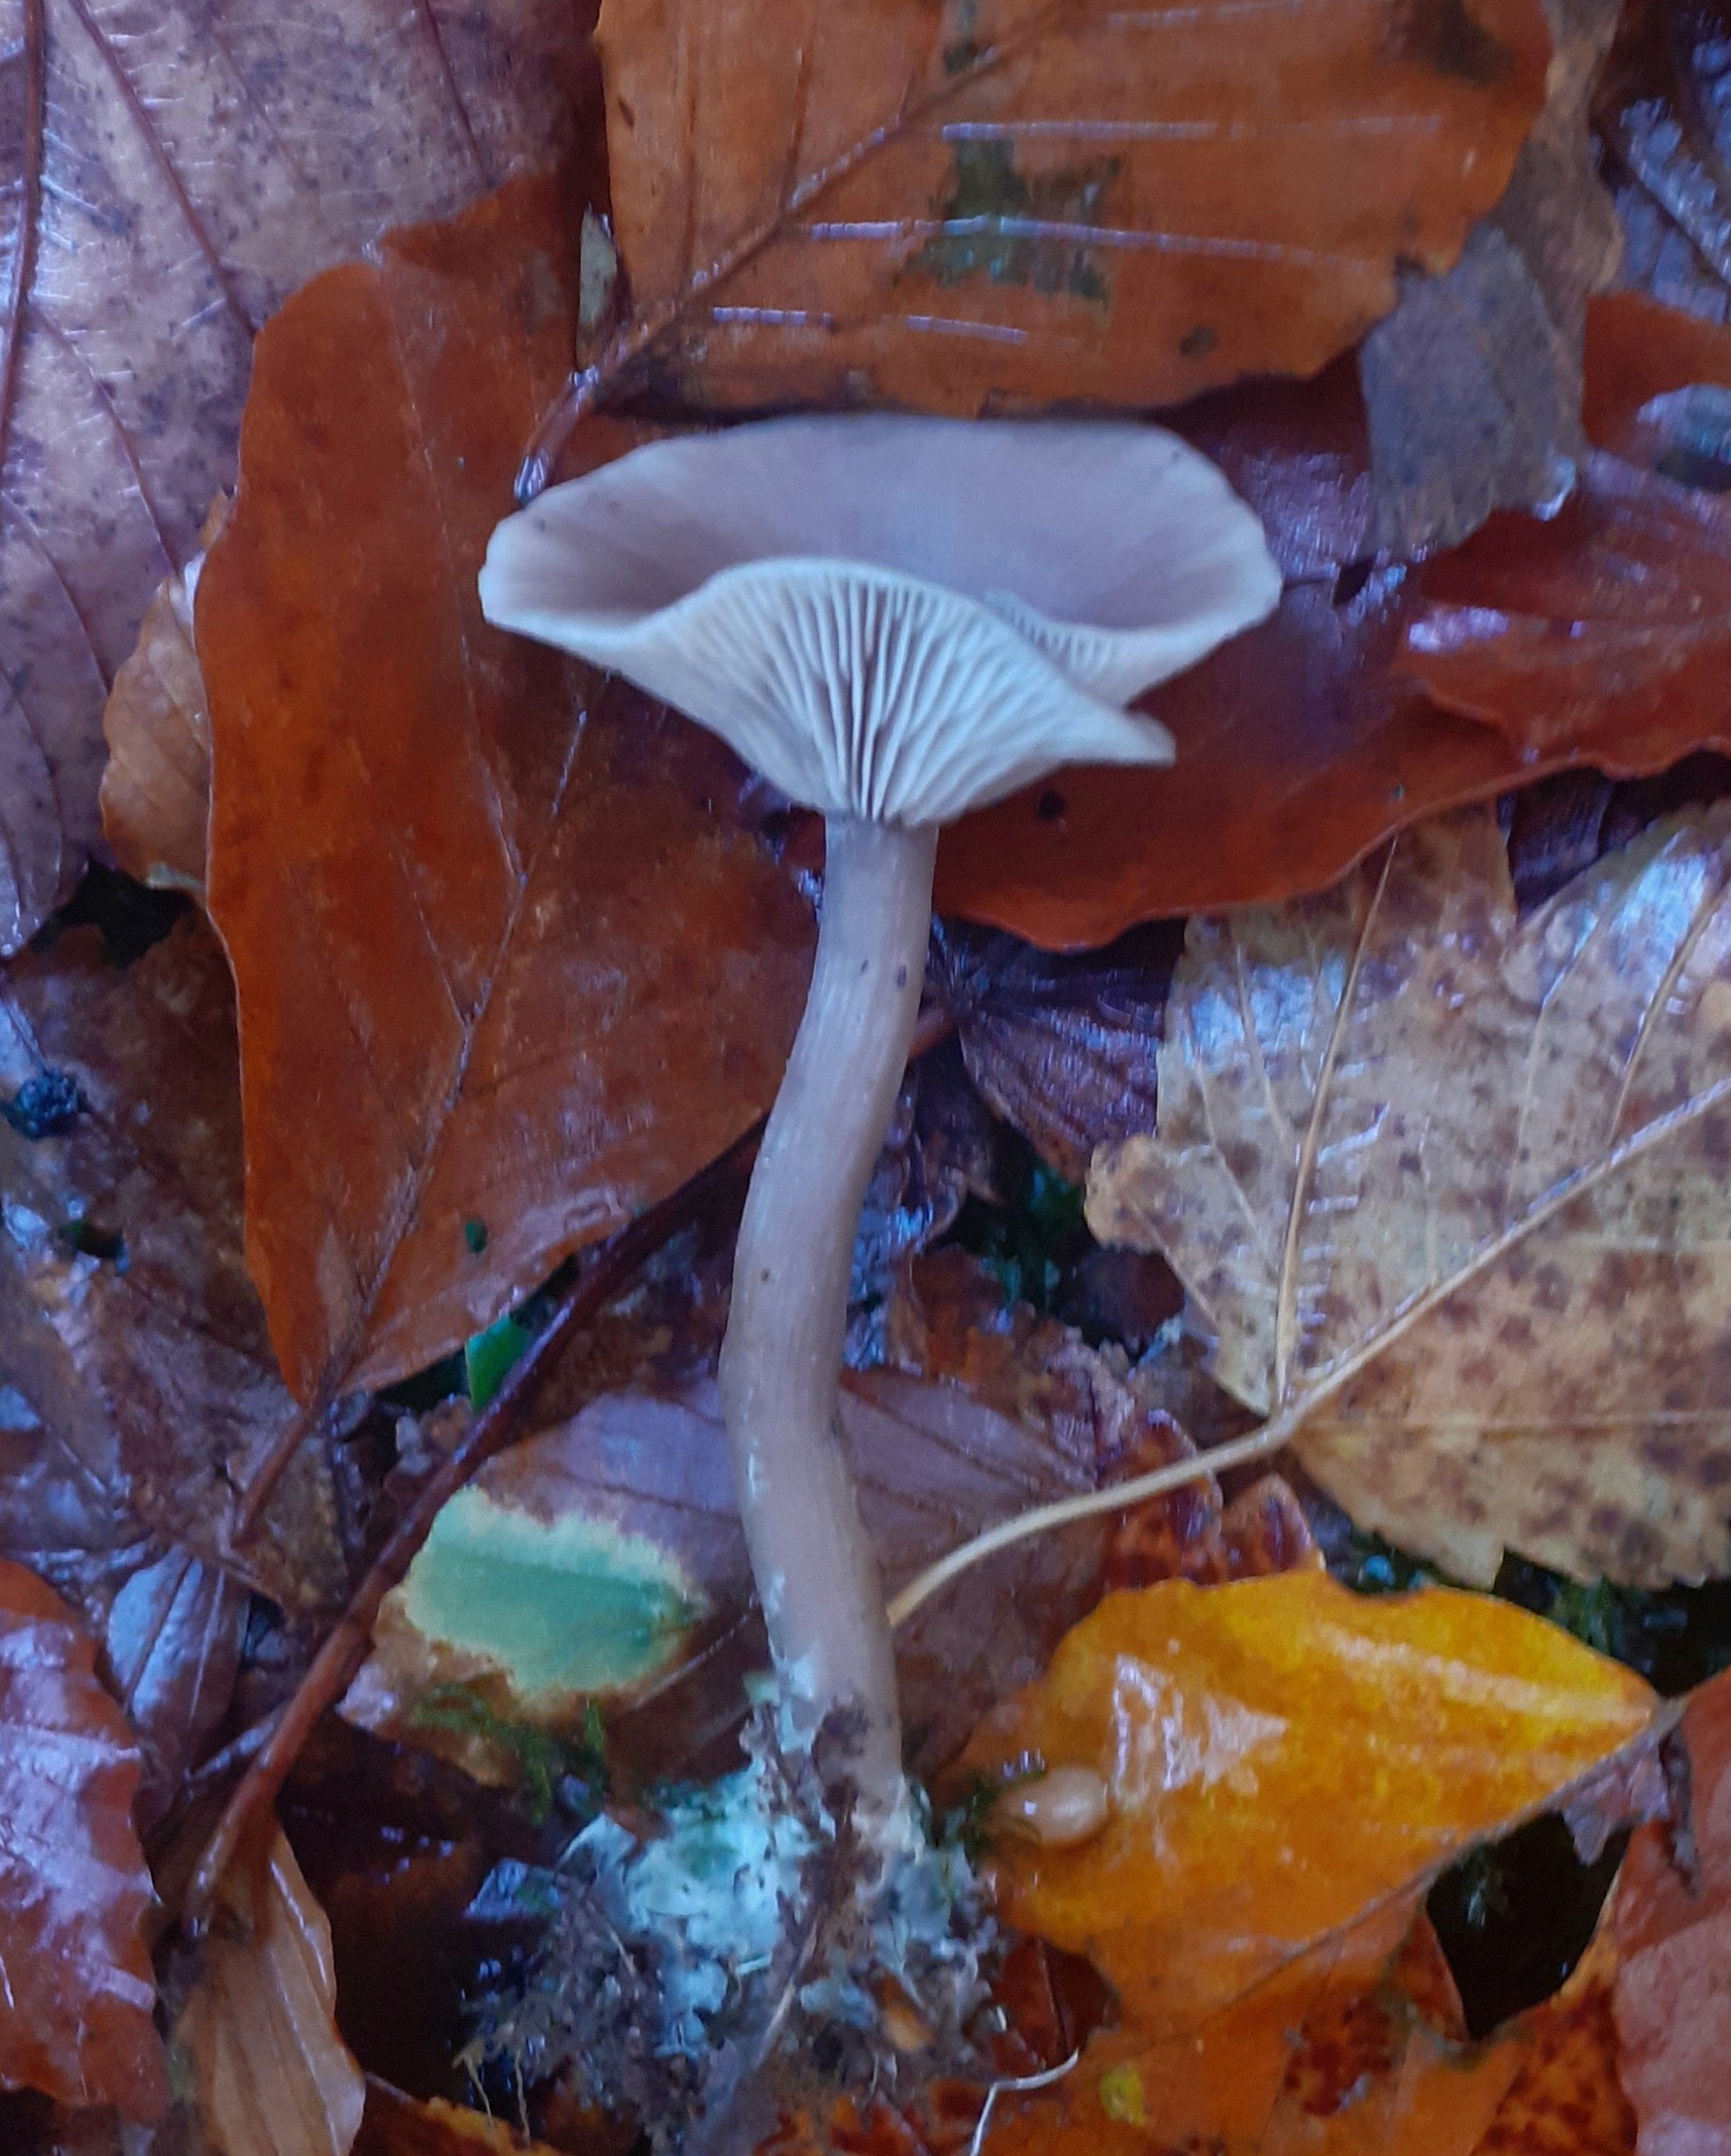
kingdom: Fungi
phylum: Basidiomycota
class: Agaricomycetes
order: Agaricales
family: Pseudoclitocybaceae
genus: Pseudoclitocybe
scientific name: Pseudoclitocybe cyathiformis
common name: almindelig bægertragthat
